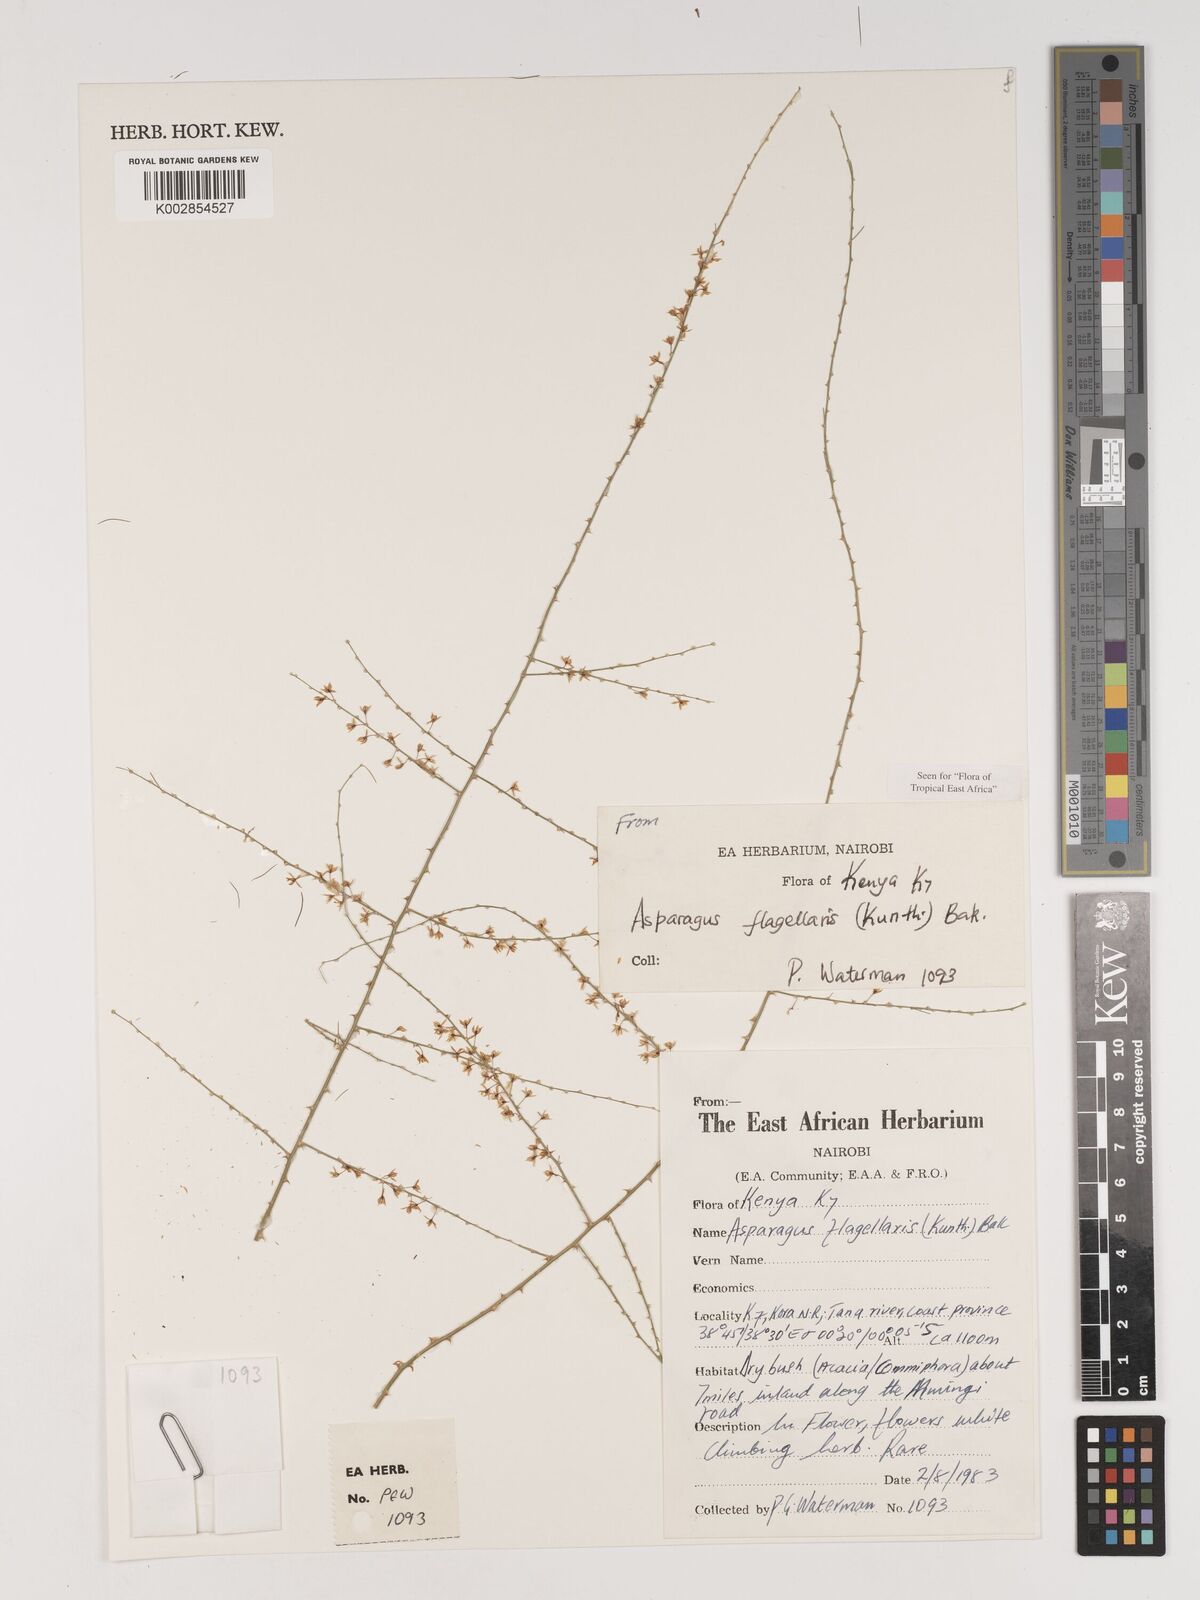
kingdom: Plantae
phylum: Tracheophyta
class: Liliopsida
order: Asparagales
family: Asparagaceae
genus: Asparagus
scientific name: Asparagus flagellaris
